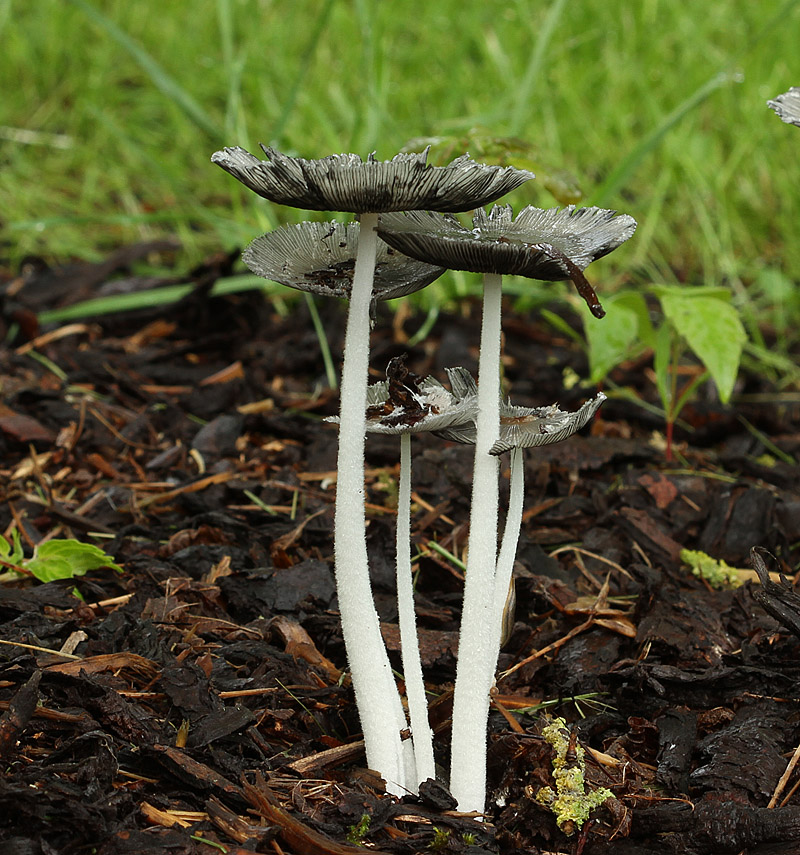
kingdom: Fungi
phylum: Basidiomycota
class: Agaricomycetes
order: Agaricales
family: Psathyrellaceae
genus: Coprinopsis
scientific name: Coprinopsis lagopus
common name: dunstokket blækhat
